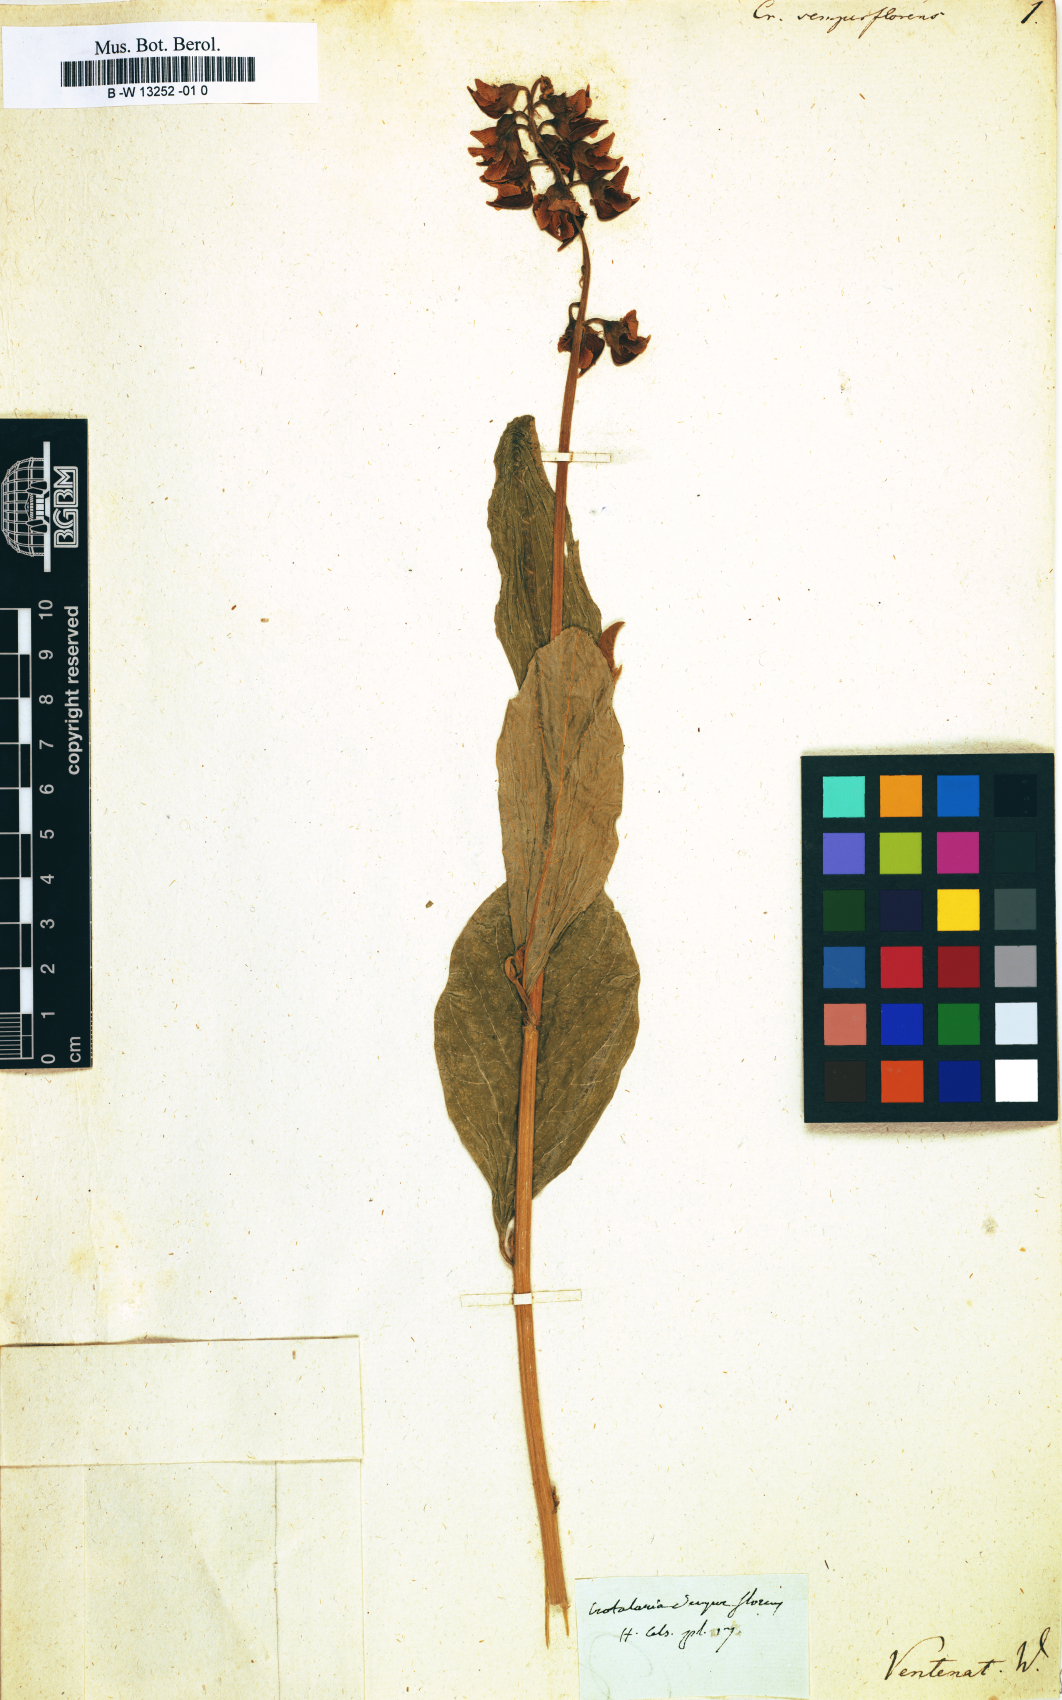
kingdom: Plantae
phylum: Tracheophyta
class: Magnoliopsida
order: Fabales
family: Fabaceae
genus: Crotalaria
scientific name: Crotalaria semperflorens
